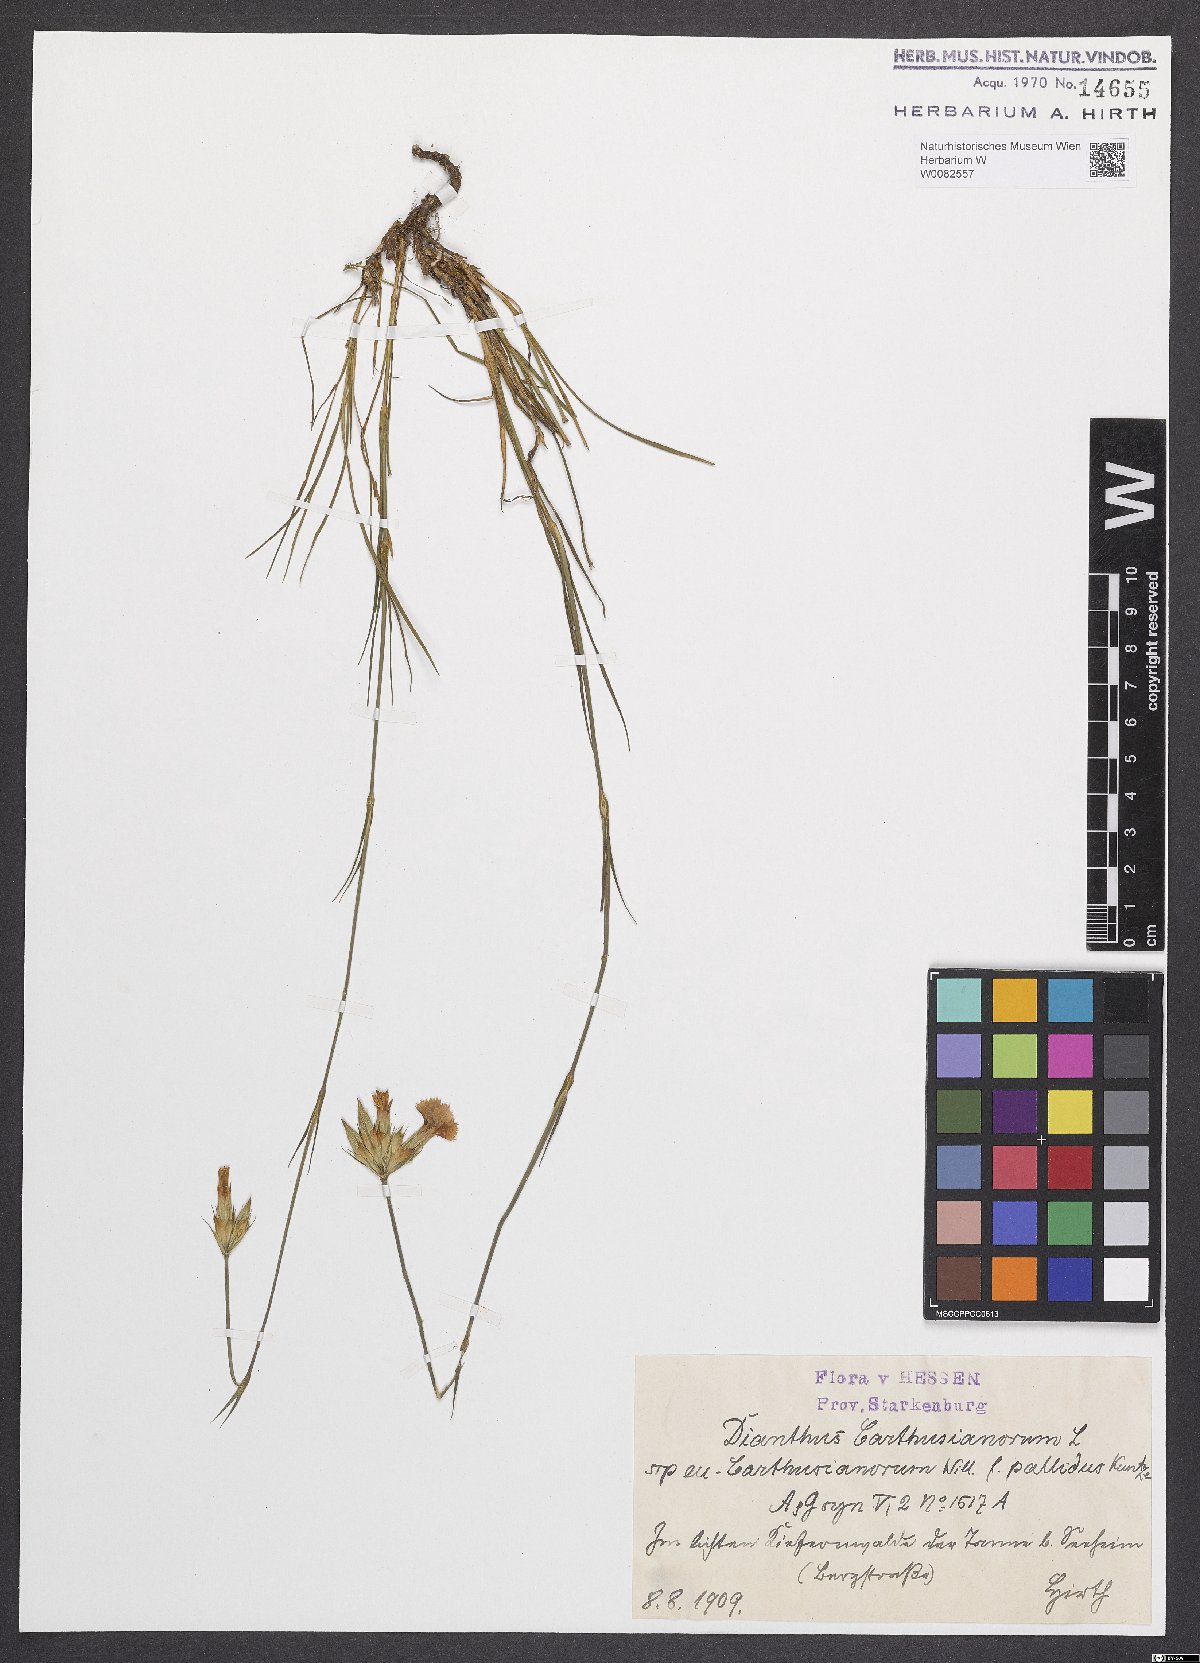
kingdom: Plantae
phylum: Tracheophyta
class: Magnoliopsida
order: Caryophyllales
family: Caryophyllaceae
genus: Dianthus
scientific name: Dianthus carthusianorum
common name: Carthusian pink
